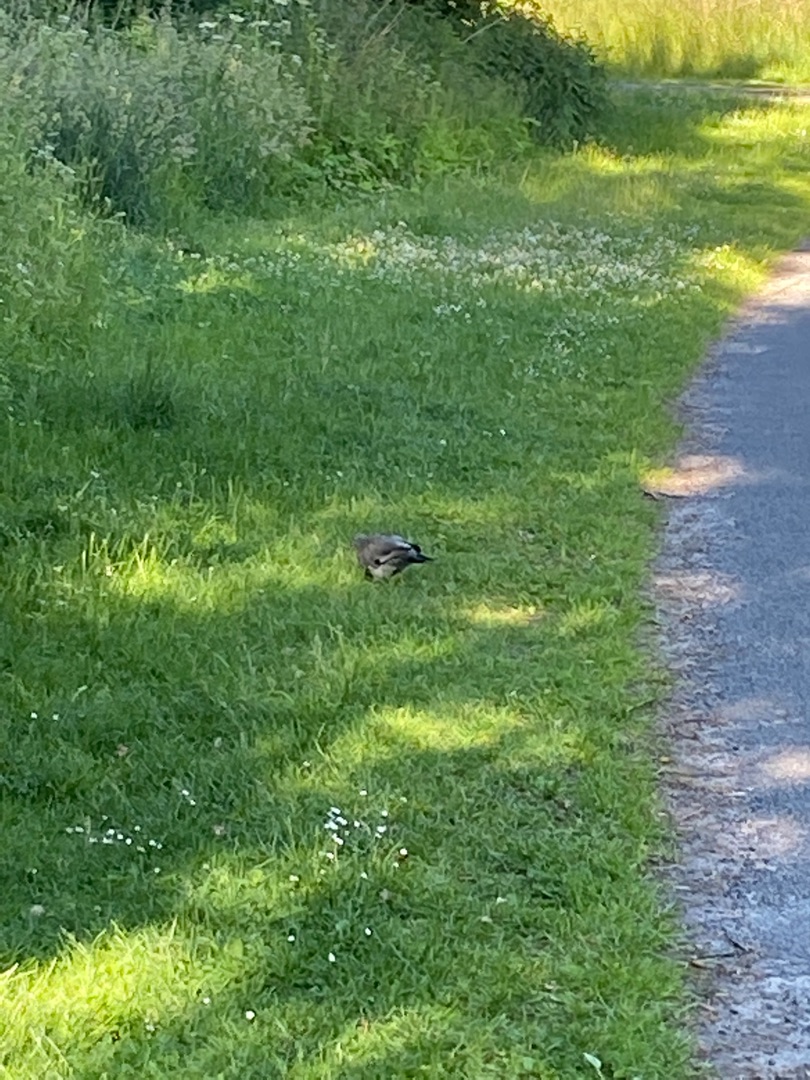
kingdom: Animalia
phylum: Chordata
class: Aves
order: Columbiformes
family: Columbidae
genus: Columba
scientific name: Columba palumbus
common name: Ringdue
